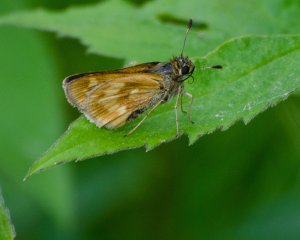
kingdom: Animalia
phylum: Arthropoda
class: Insecta
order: Lepidoptera
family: Hesperiidae
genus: Polites
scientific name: Polites
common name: Long Dash Skipper
